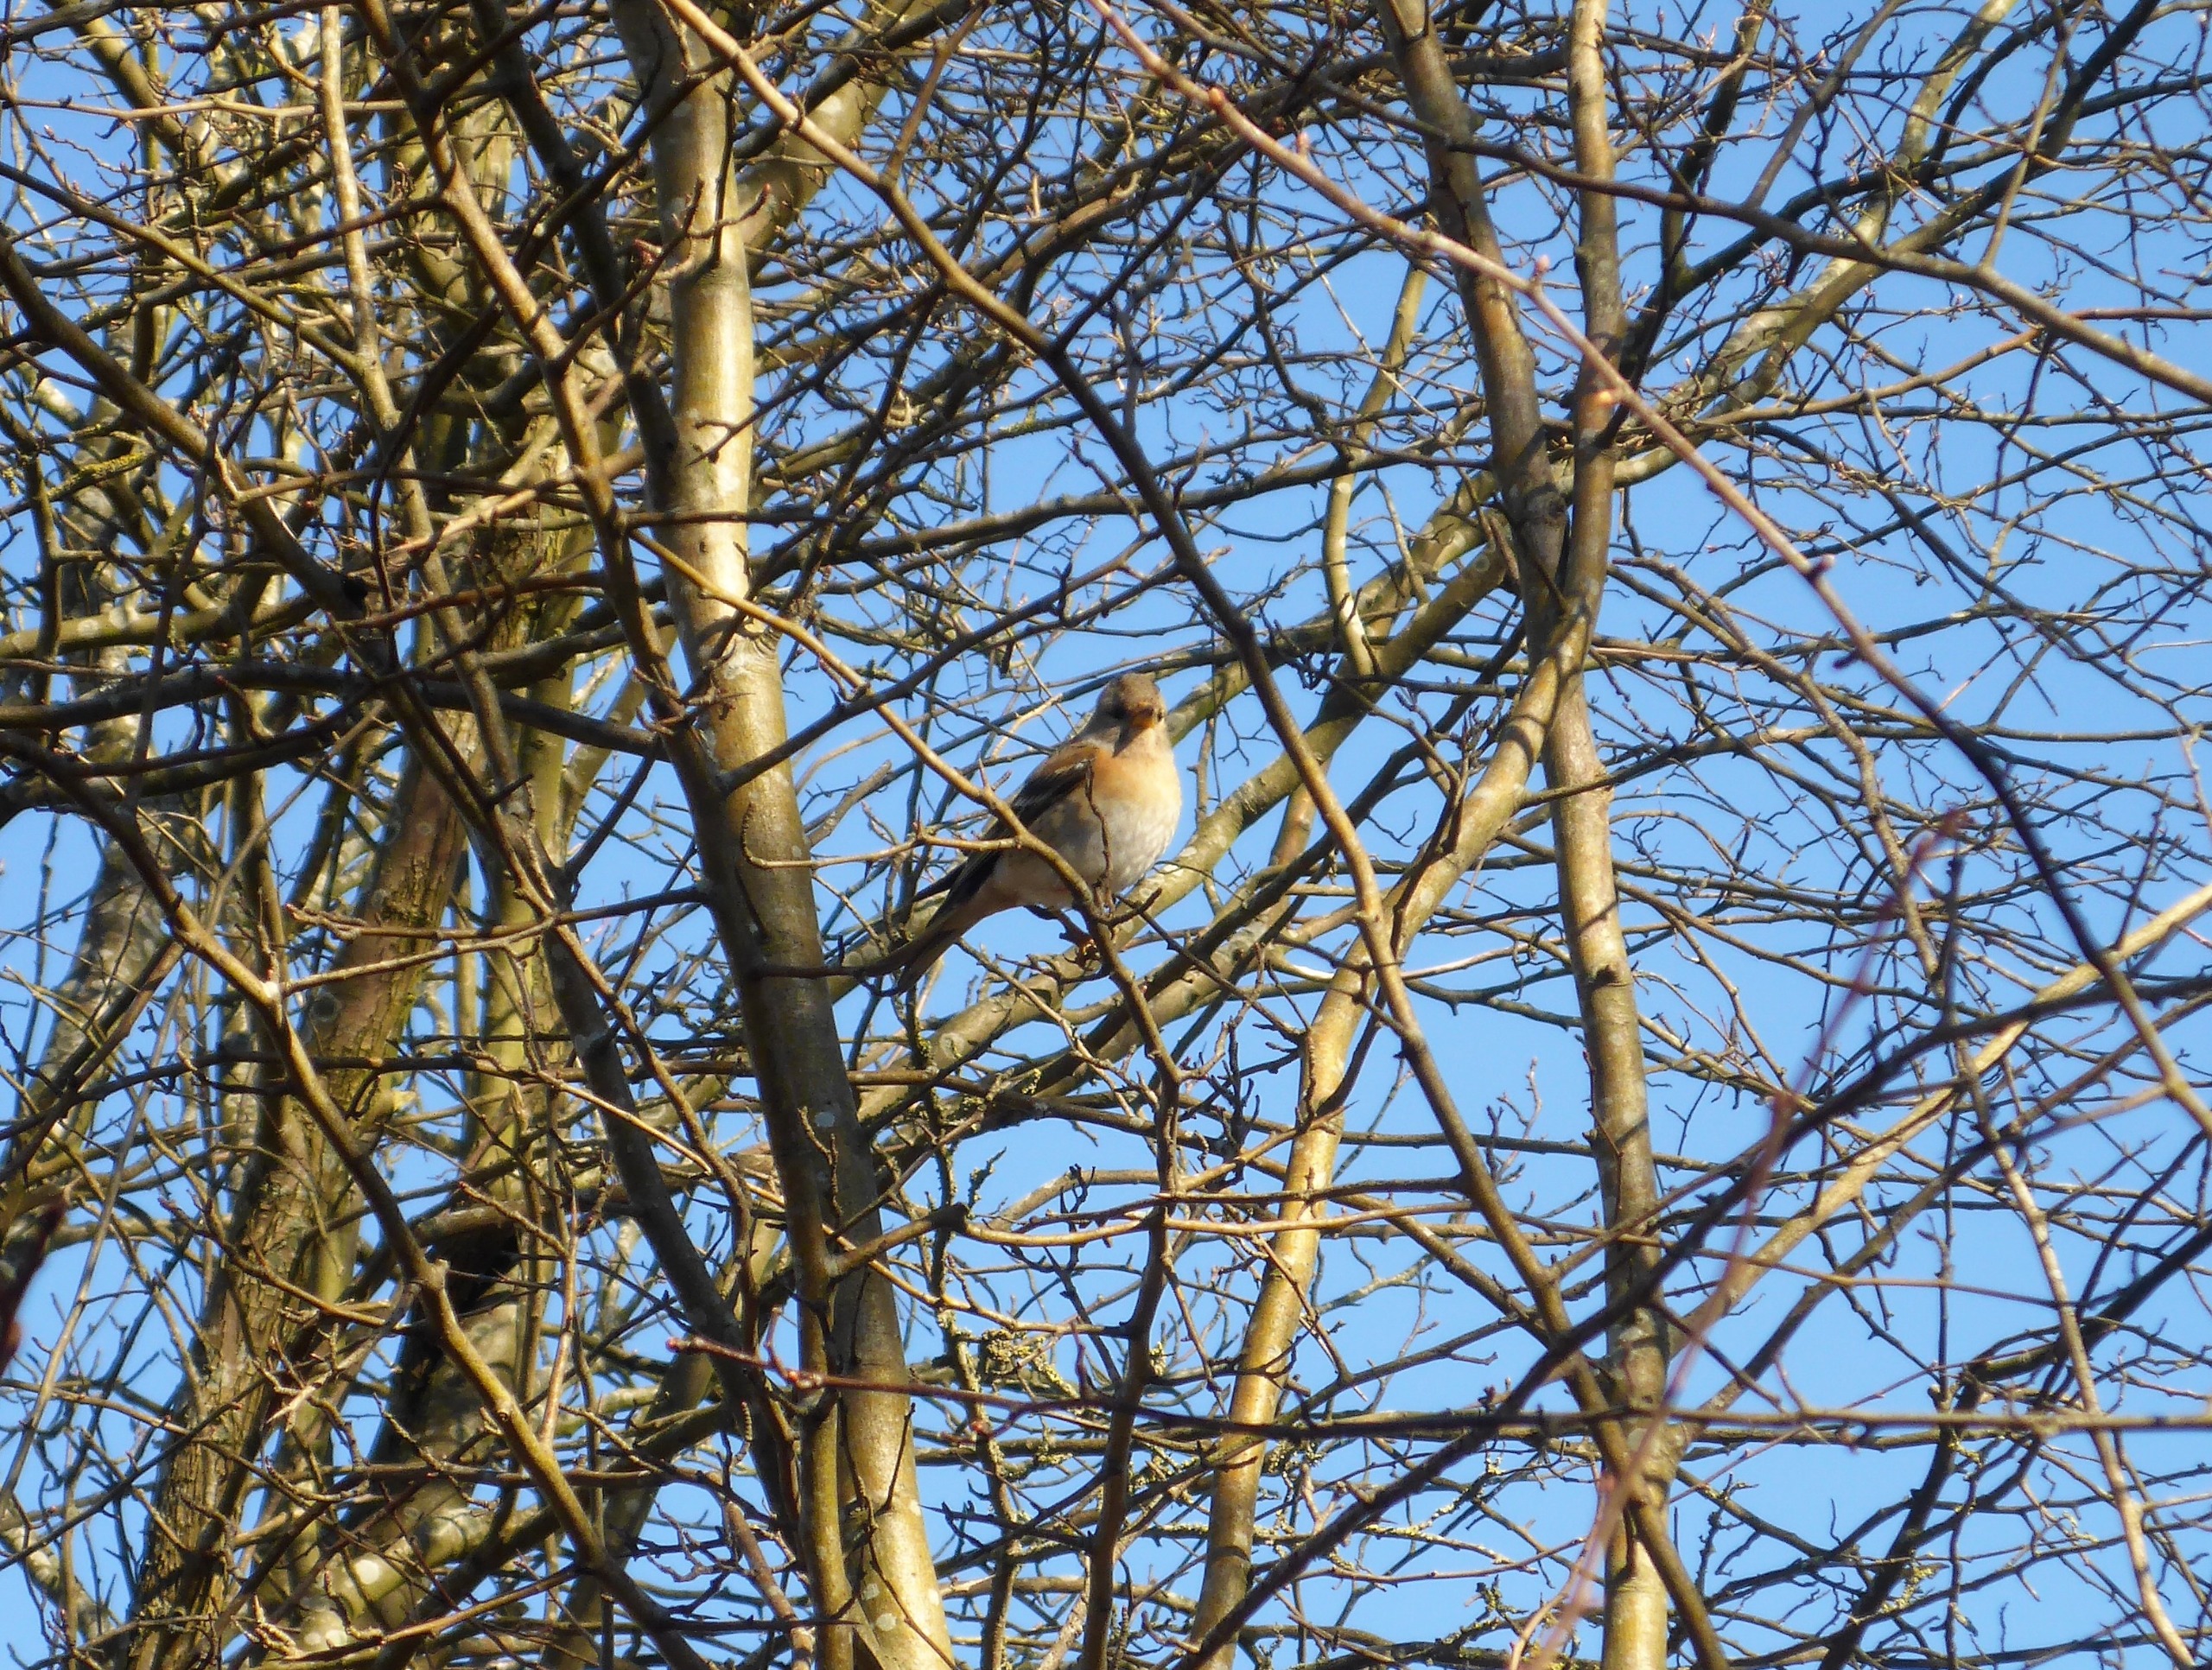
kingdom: Animalia
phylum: Chordata
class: Aves
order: Passeriformes
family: Fringillidae
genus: Fringilla
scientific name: Fringilla montifringilla
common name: Kvækerfinke
